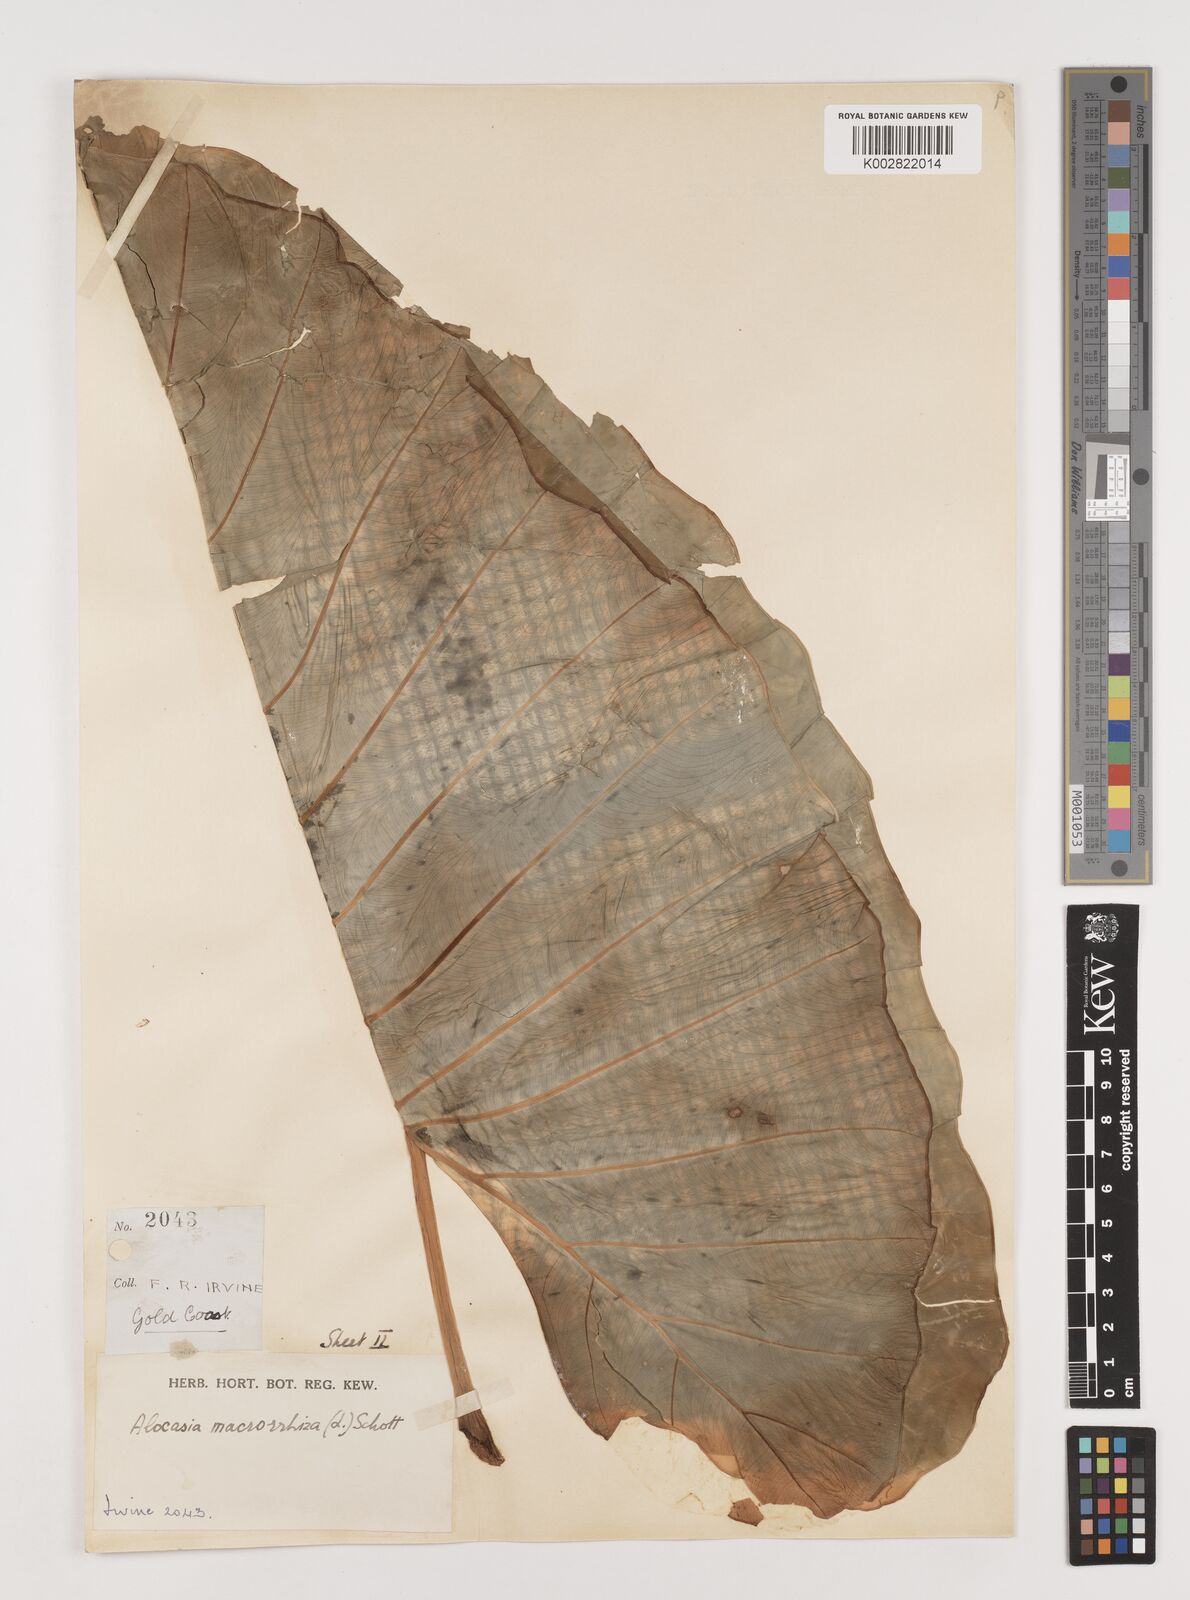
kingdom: Plantae
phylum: Tracheophyta
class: Liliopsida
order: Alismatales
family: Araceae
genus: Alocasia
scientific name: Alocasia macrorrhizos
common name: Giant taro
